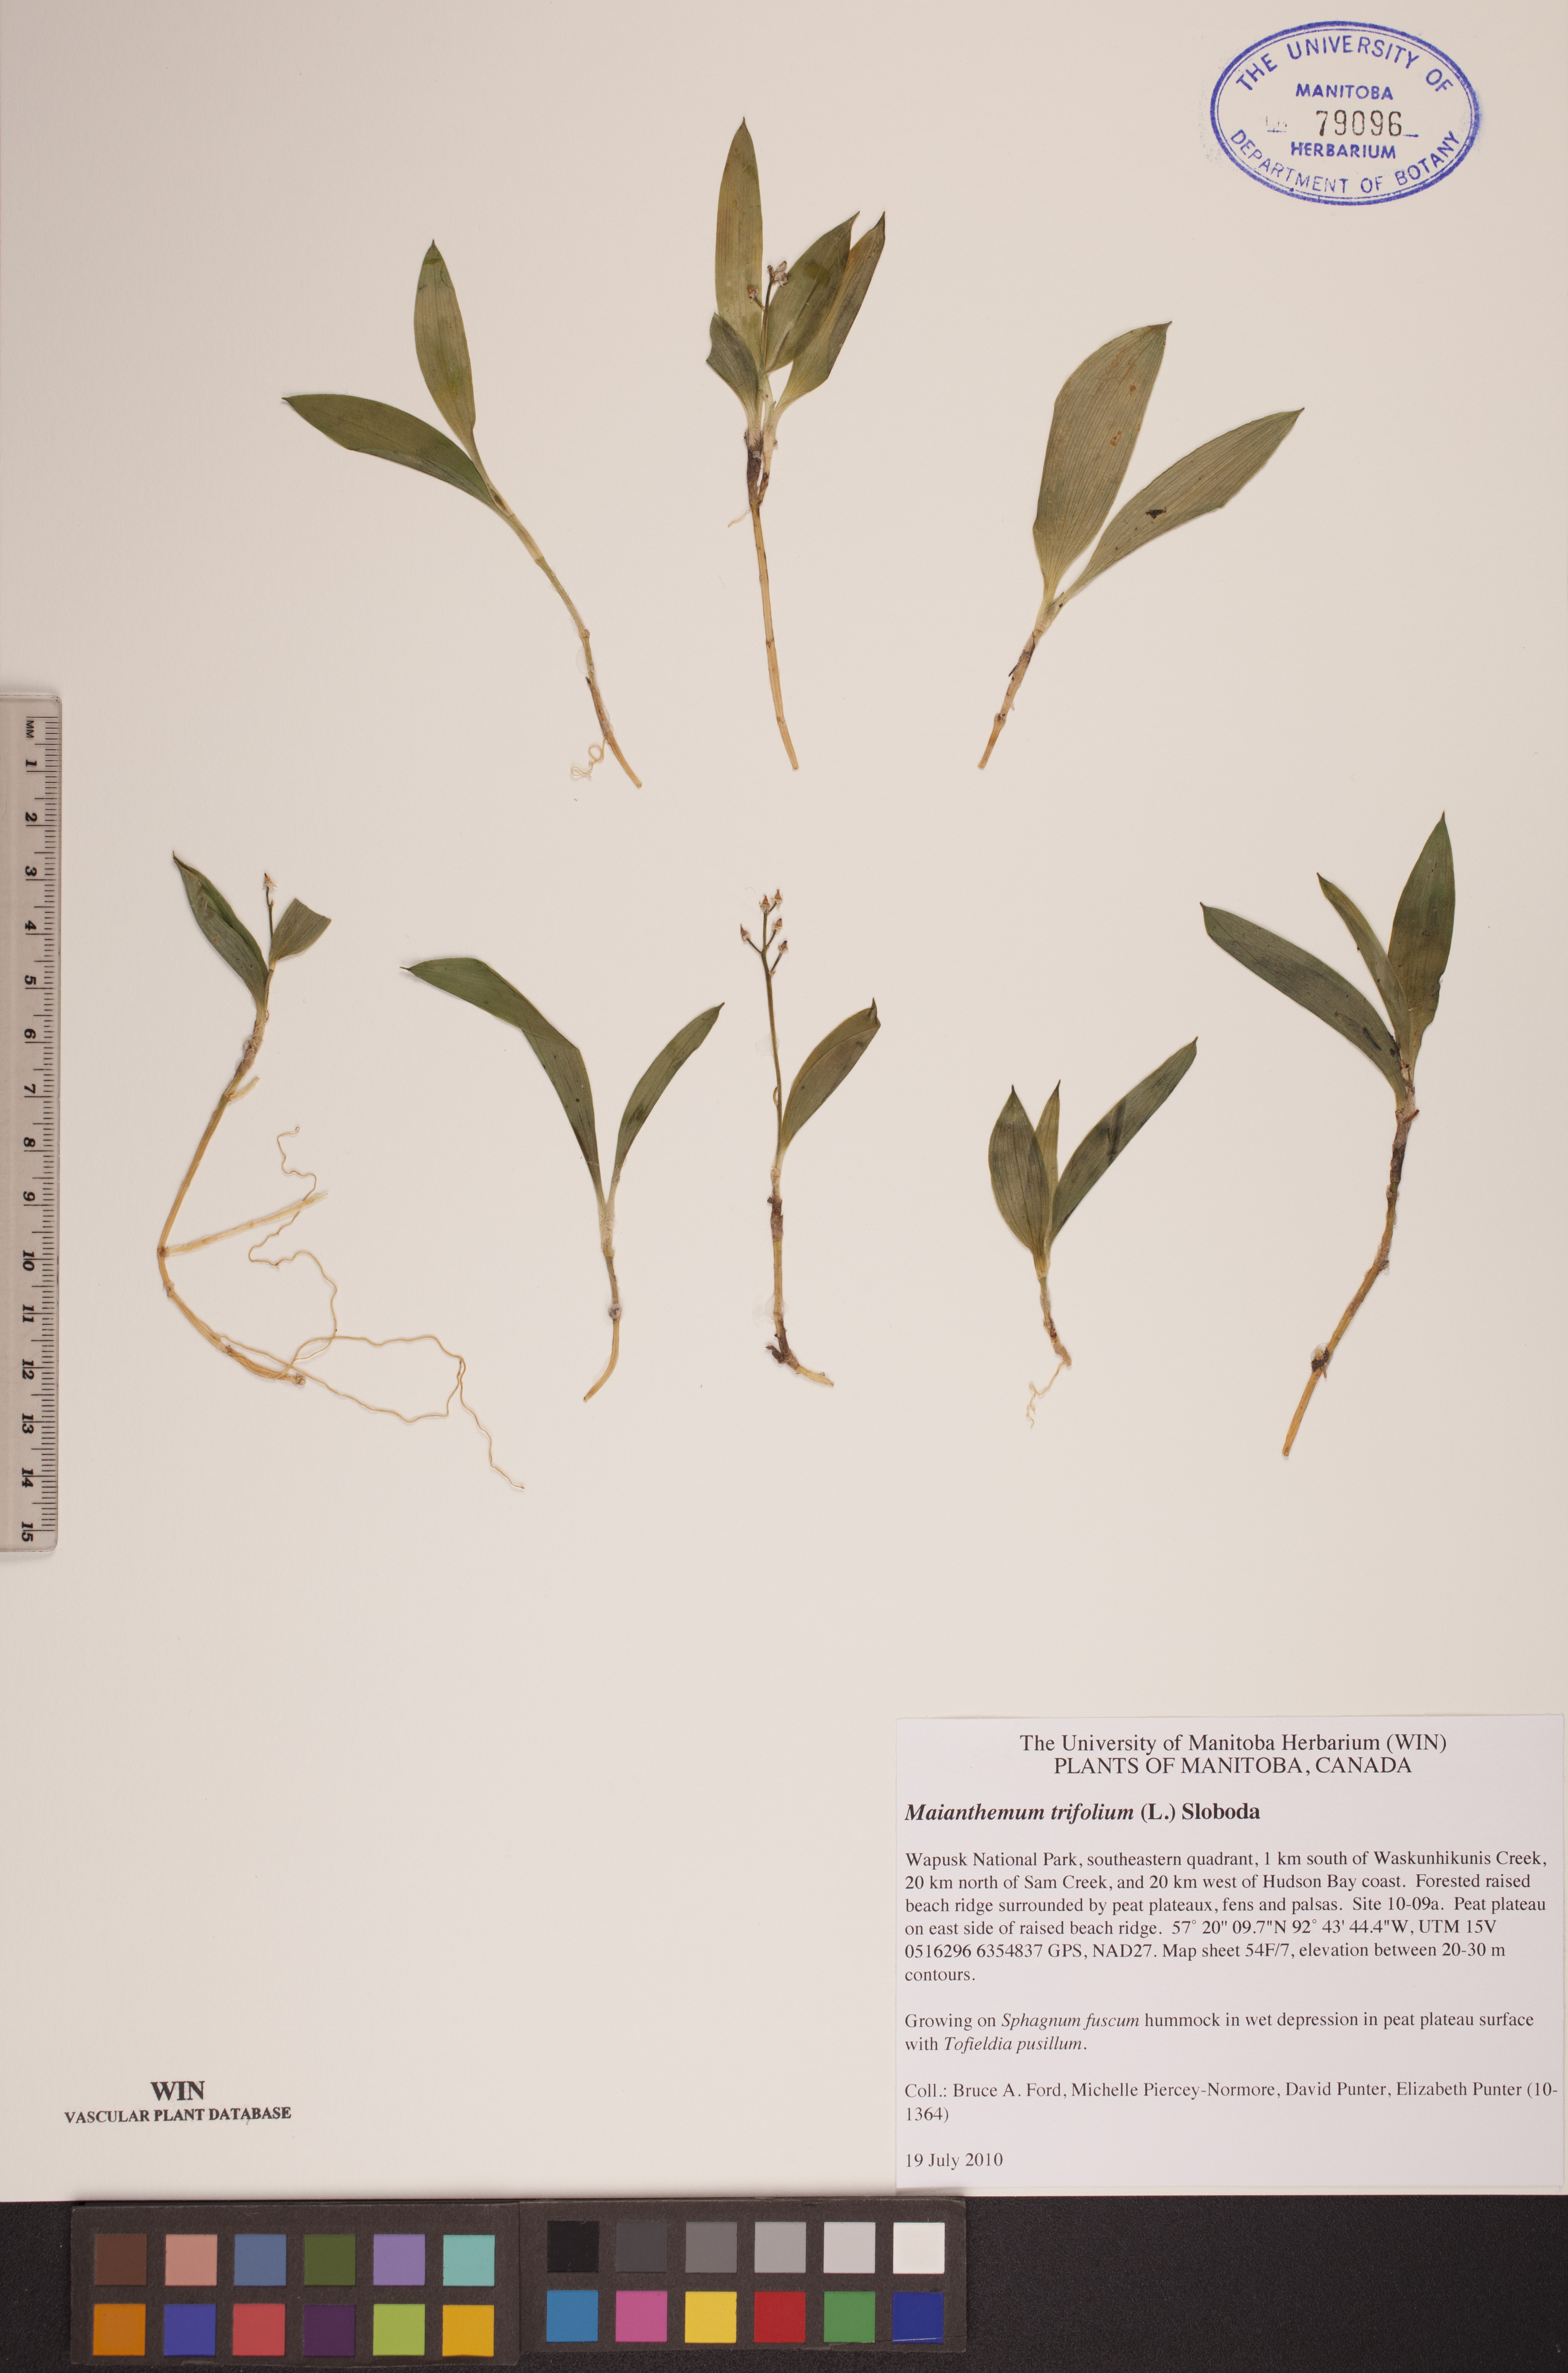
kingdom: Plantae
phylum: Tracheophyta
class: Liliopsida
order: Asparagales
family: Asparagaceae
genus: Maianthemum
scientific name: Maianthemum trifolium
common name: Swamp false solomon's seal
